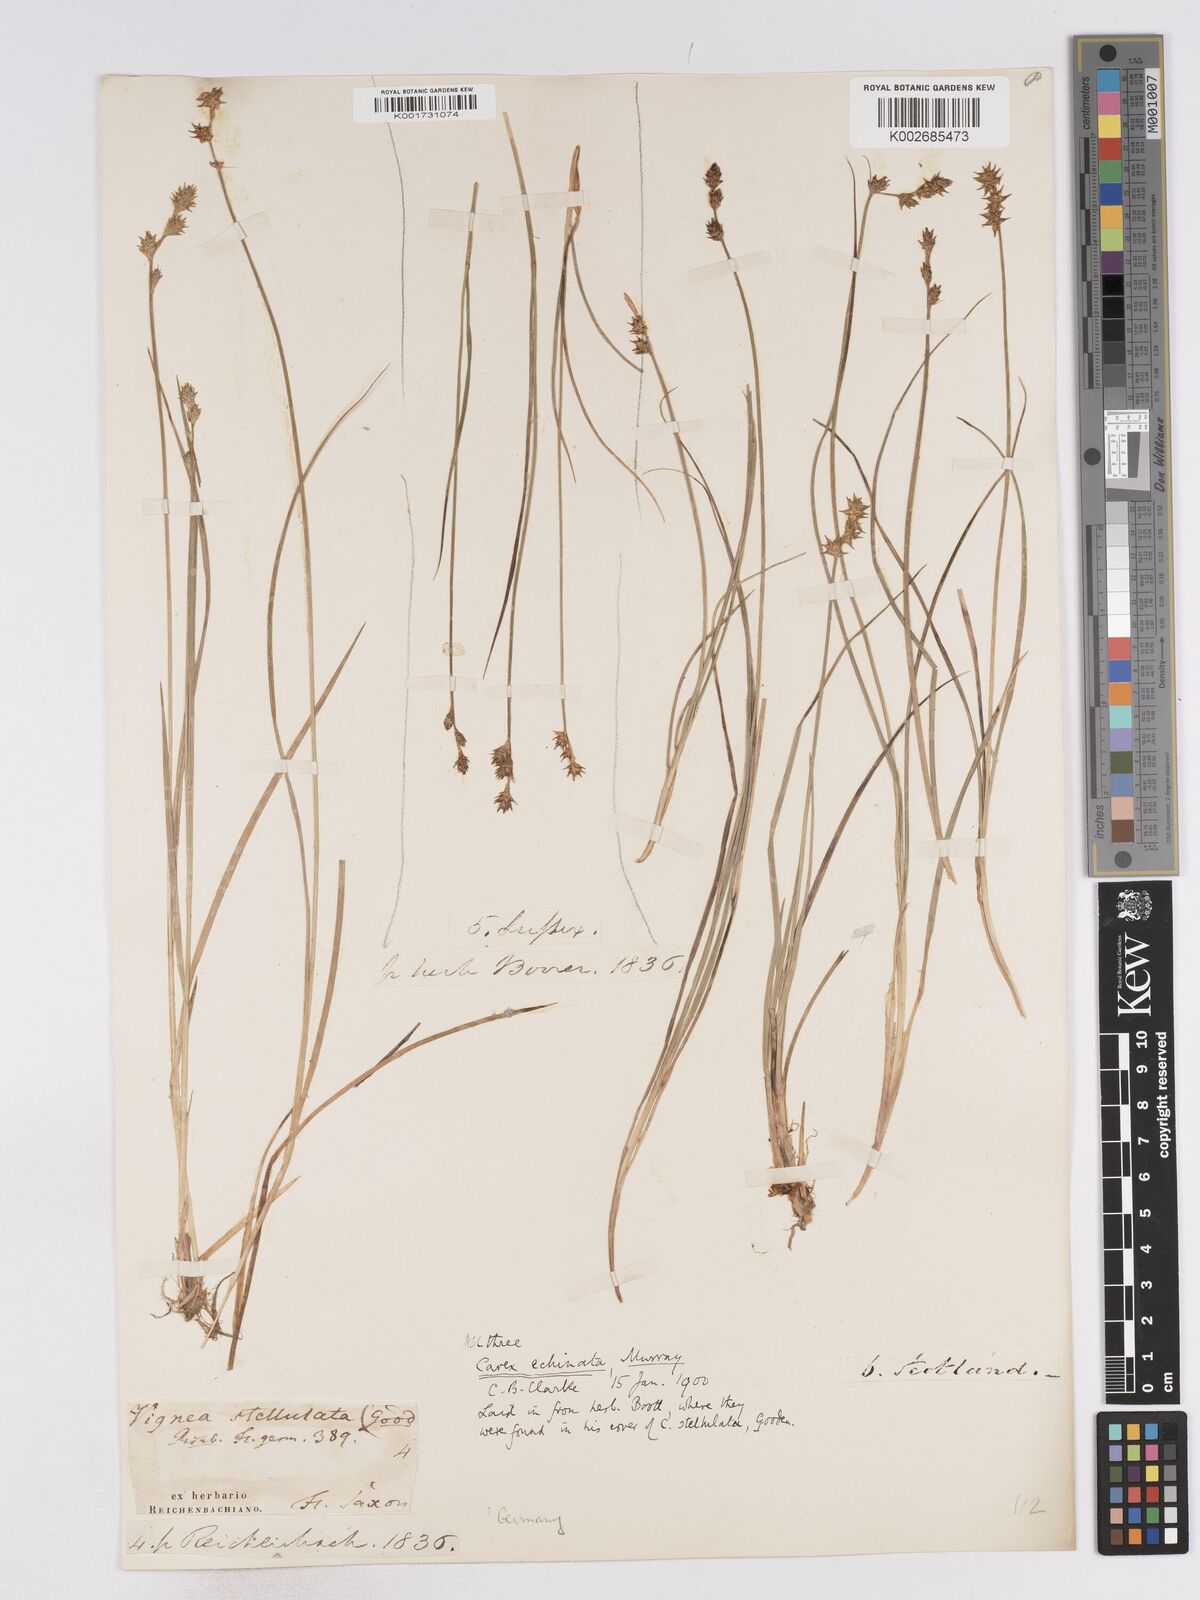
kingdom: Plantae
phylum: Tracheophyta
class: Liliopsida
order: Poales
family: Cyperaceae
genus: Carex
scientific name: Carex echinata
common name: Star sedge
